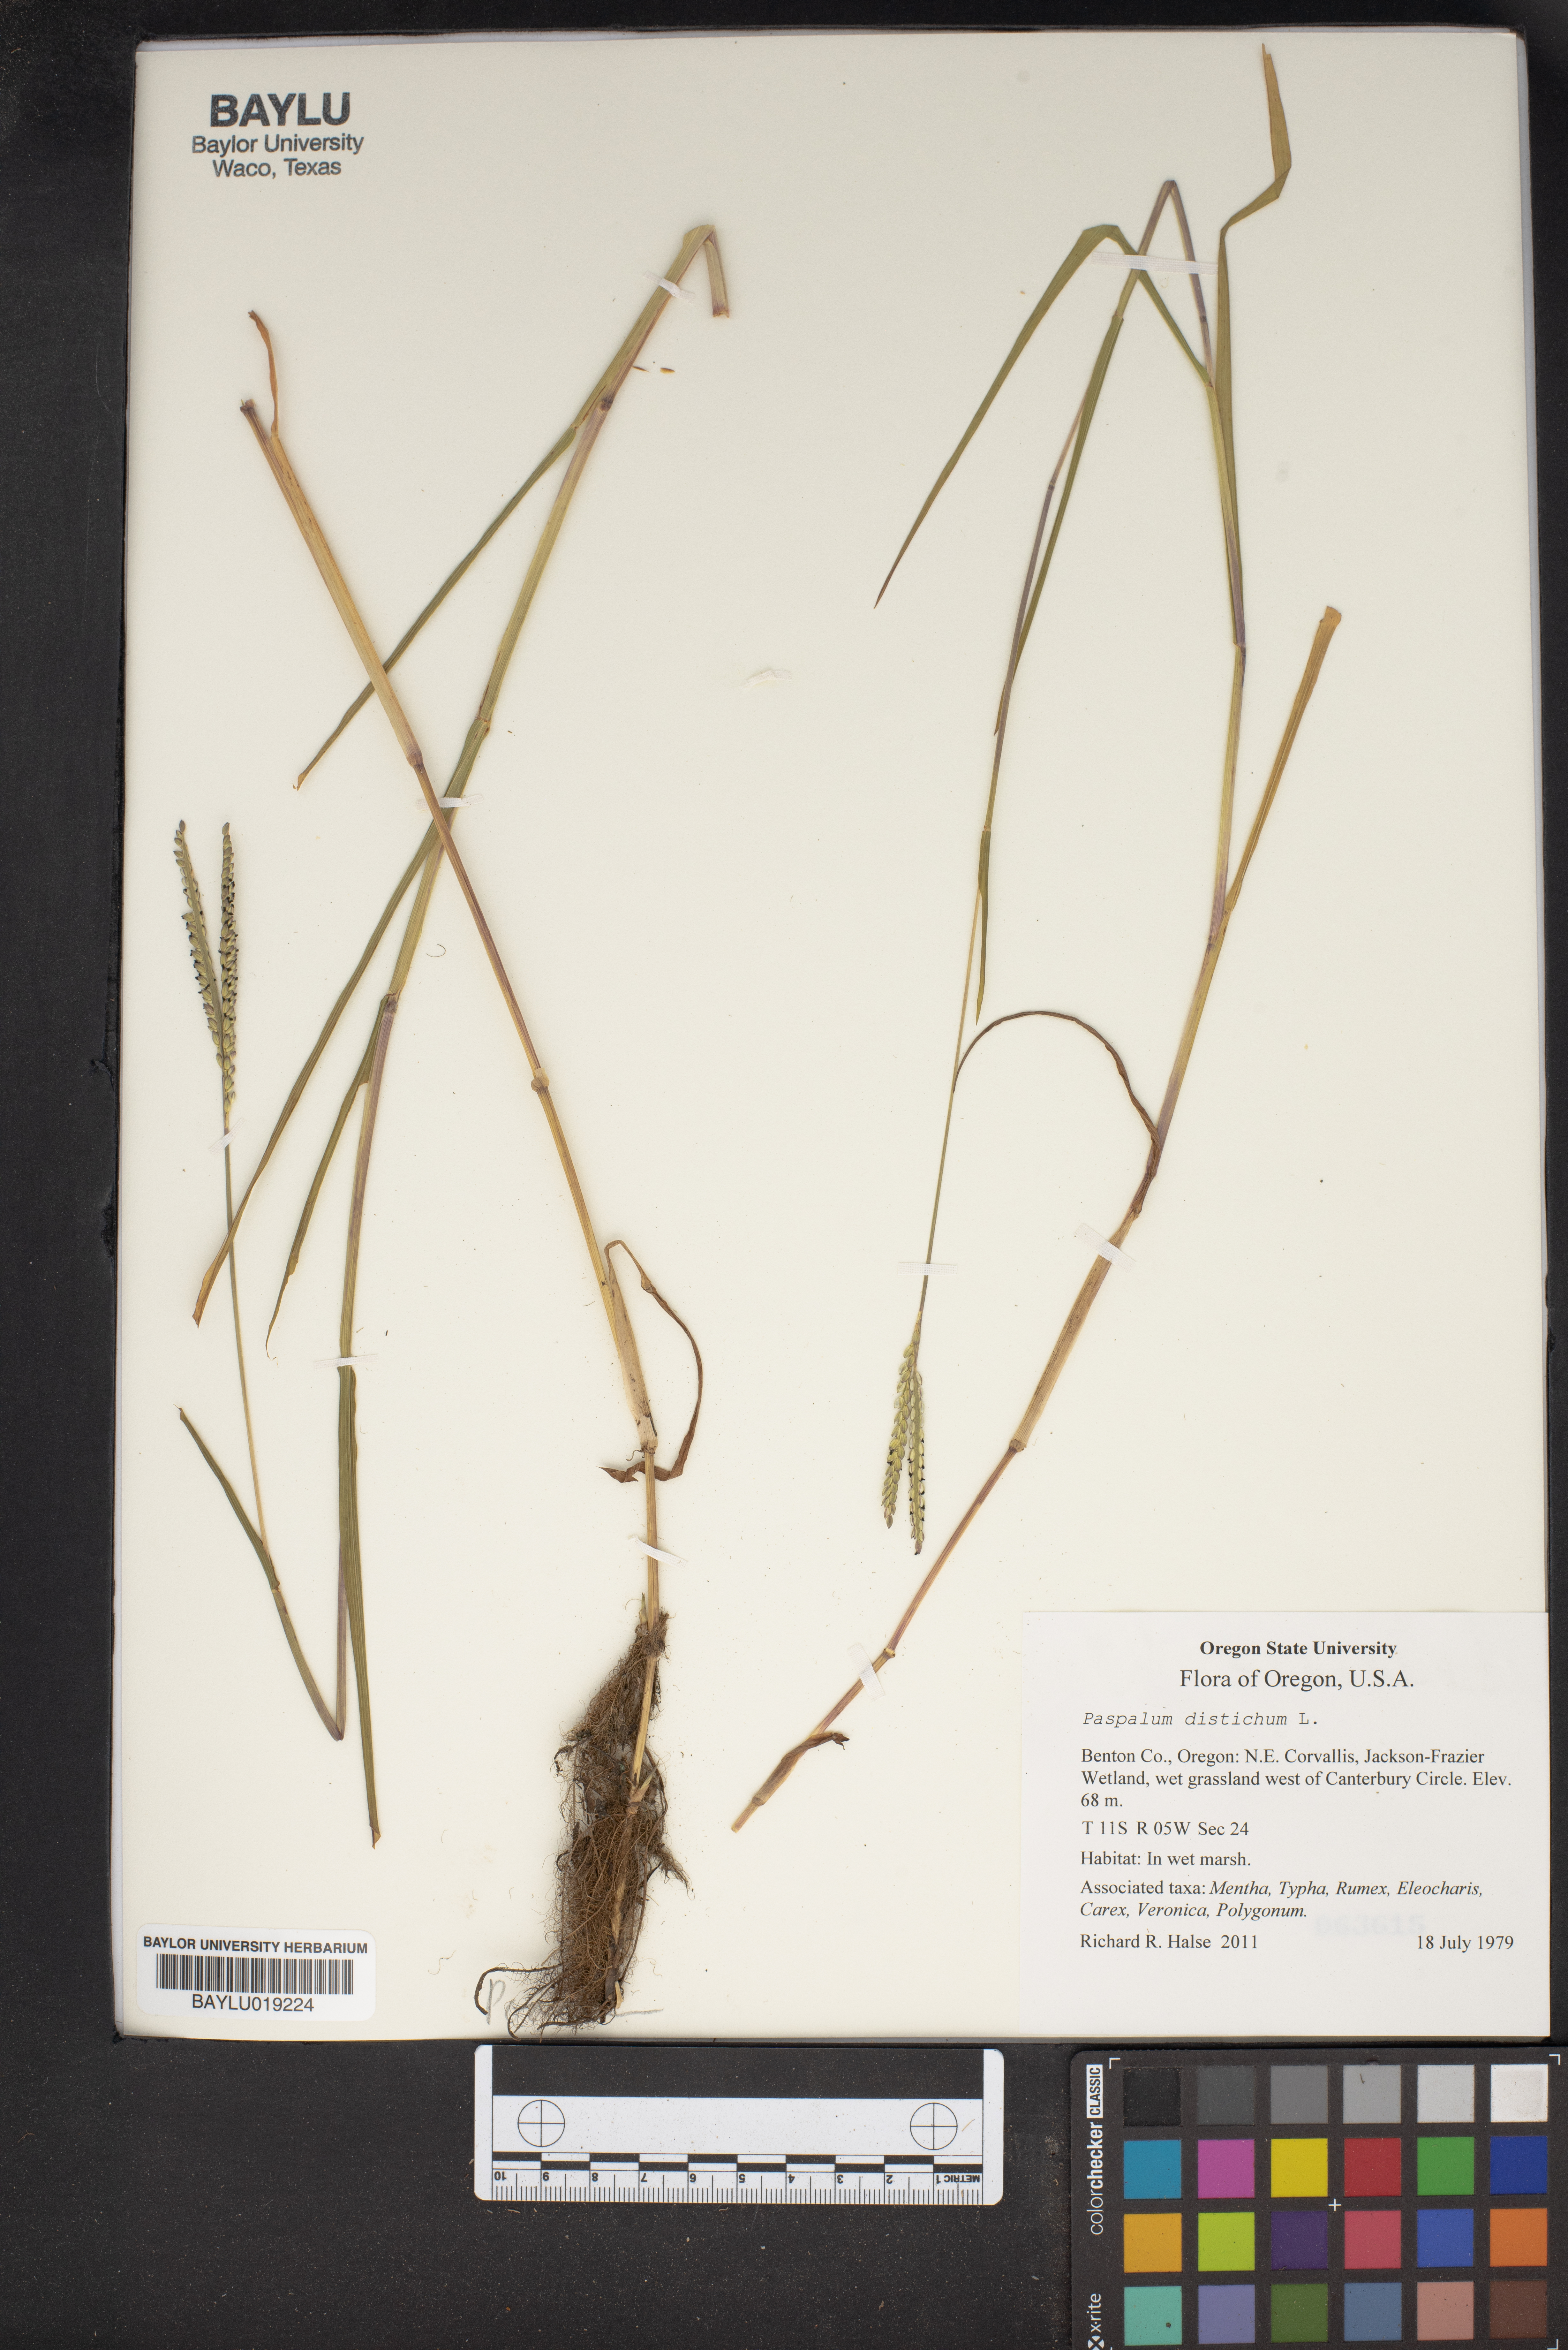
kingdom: Plantae
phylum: Tracheophyta
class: Liliopsida
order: Poales
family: Poaceae
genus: Paspalum
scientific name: Paspalum distichum
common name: Knotgrass
